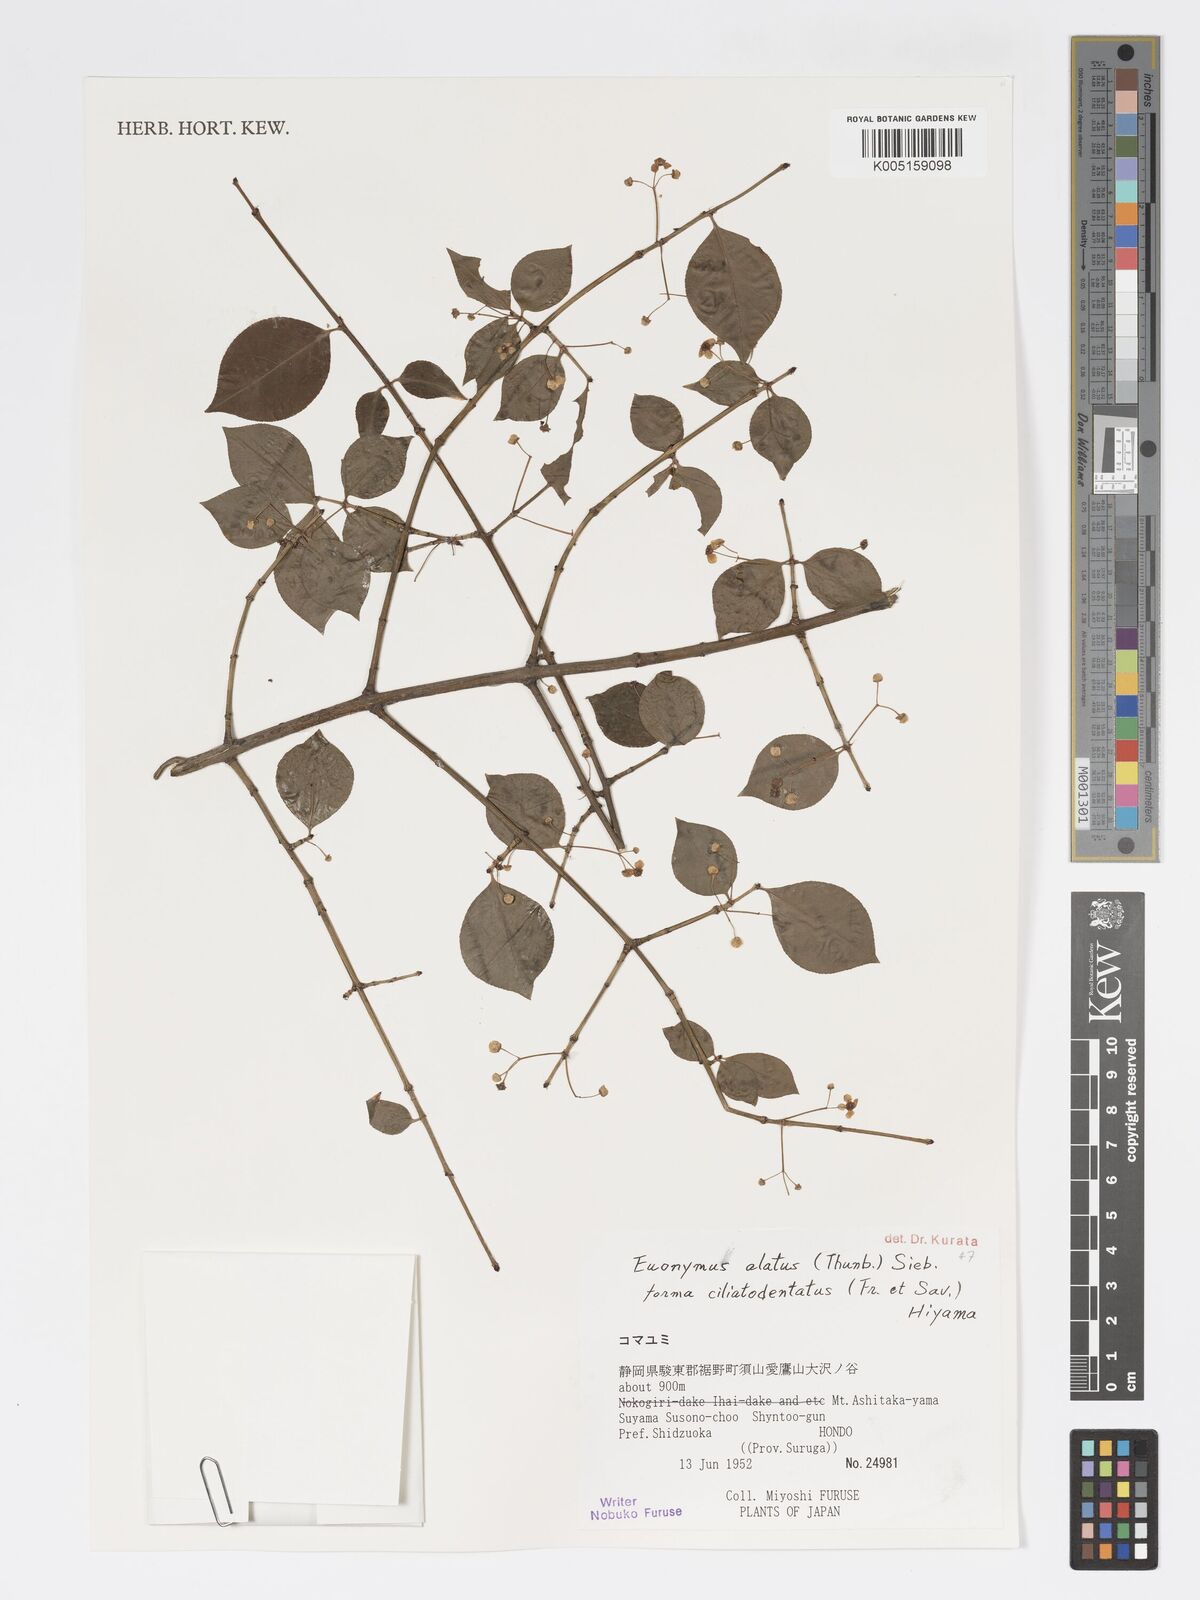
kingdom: Plantae
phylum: Tracheophyta
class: Magnoliopsida
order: Celastrales
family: Celastraceae
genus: Euonymus
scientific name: Euonymus
